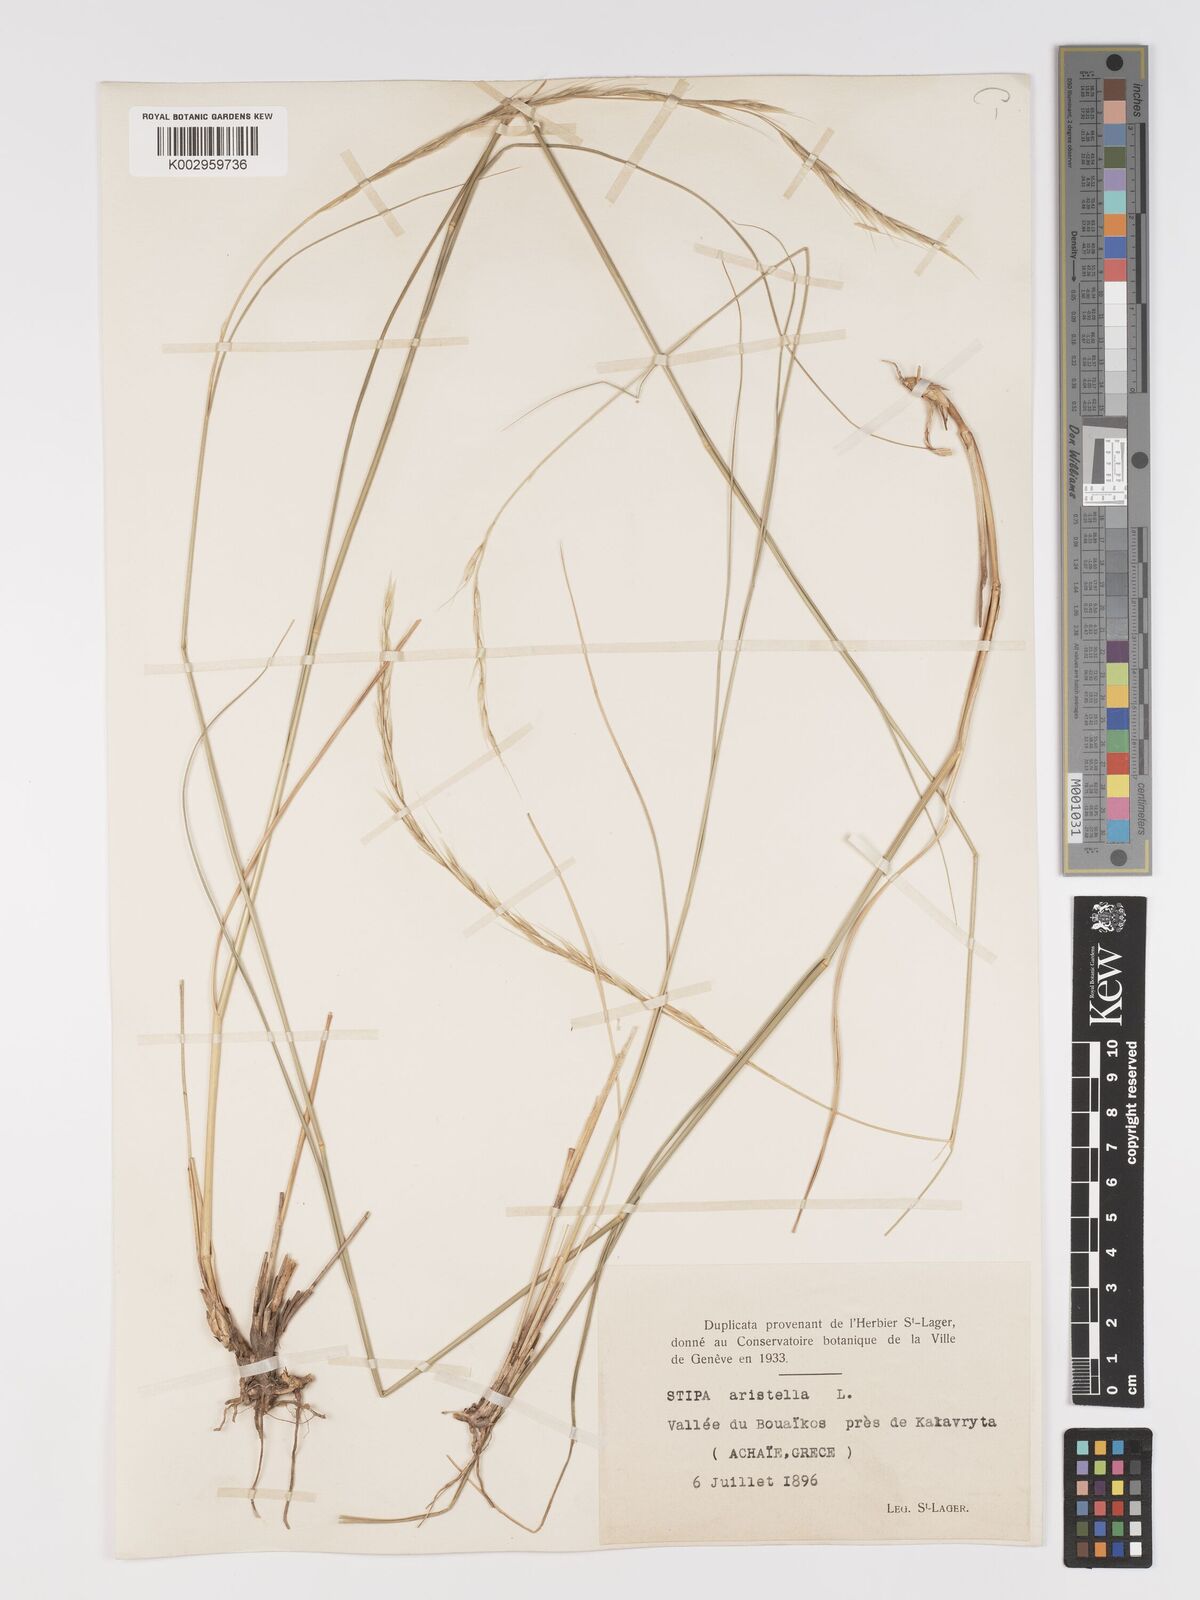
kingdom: Plantae
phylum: Tracheophyta
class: Liliopsida
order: Poales
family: Poaceae
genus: Achnatherum
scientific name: Achnatherum bromoides
